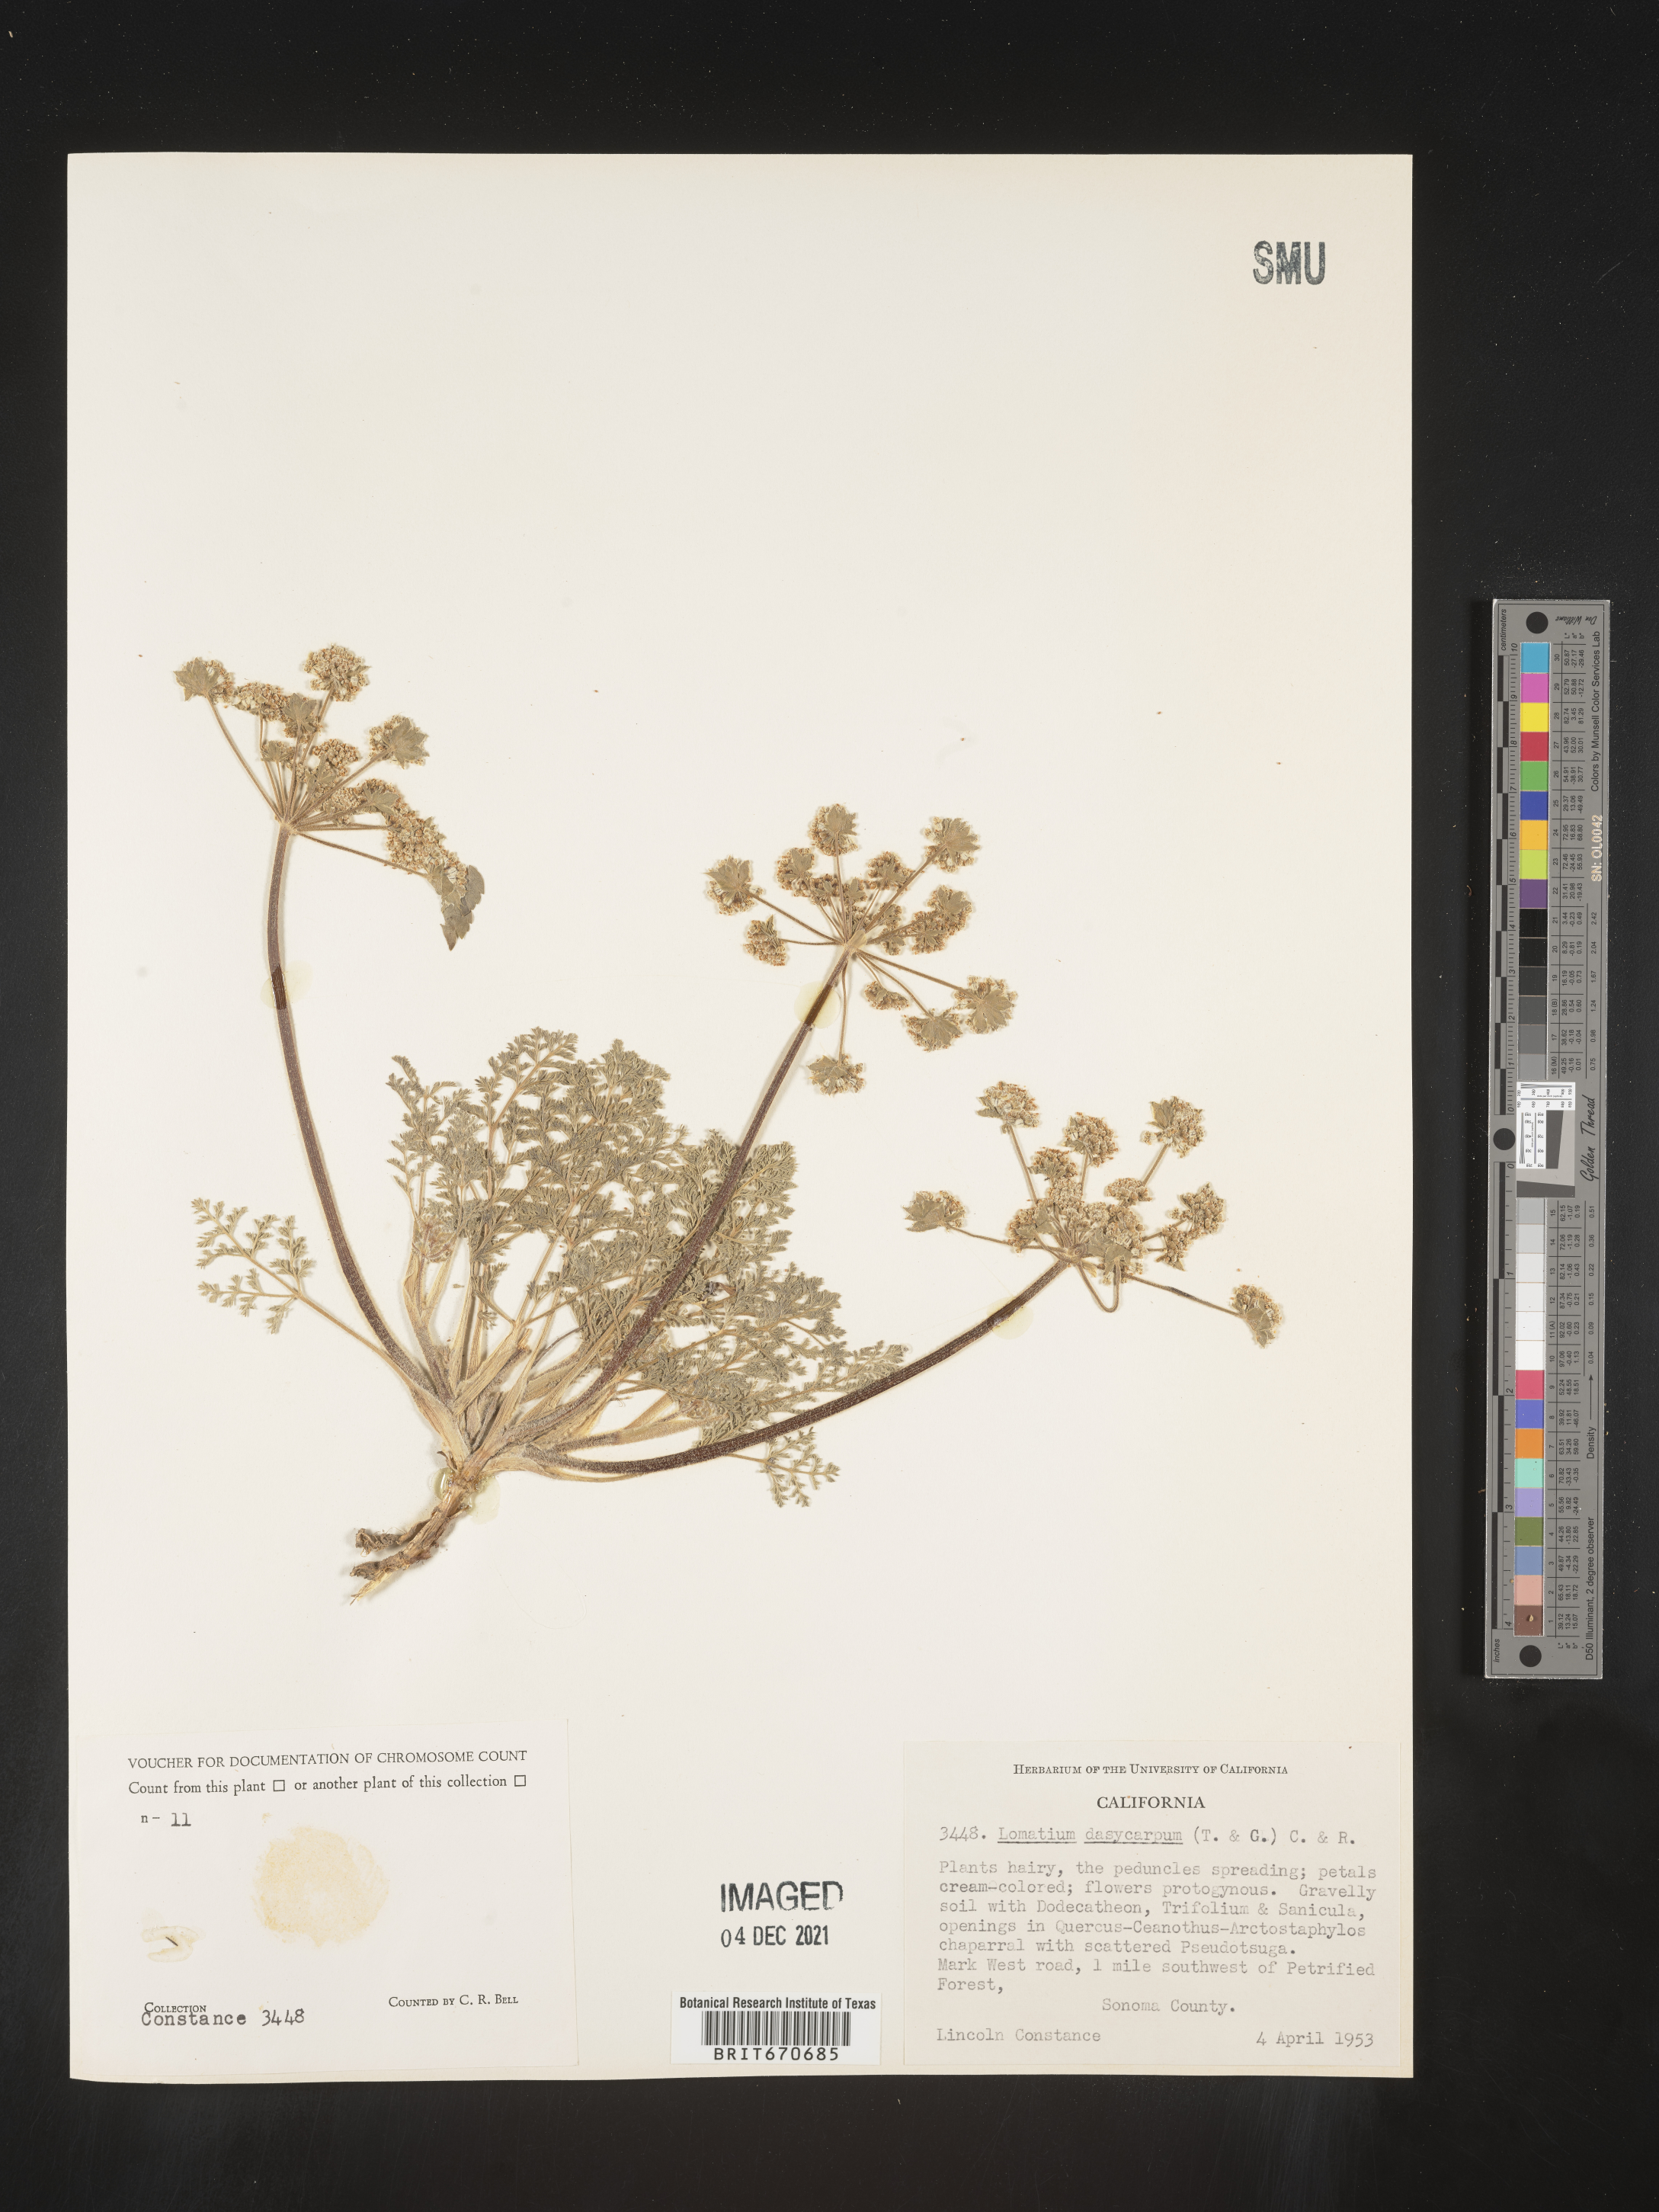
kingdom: Plantae
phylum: Tracheophyta
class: Magnoliopsida
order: Apiales
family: Apiaceae
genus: Lomatium
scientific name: Lomatium dasycarpum
